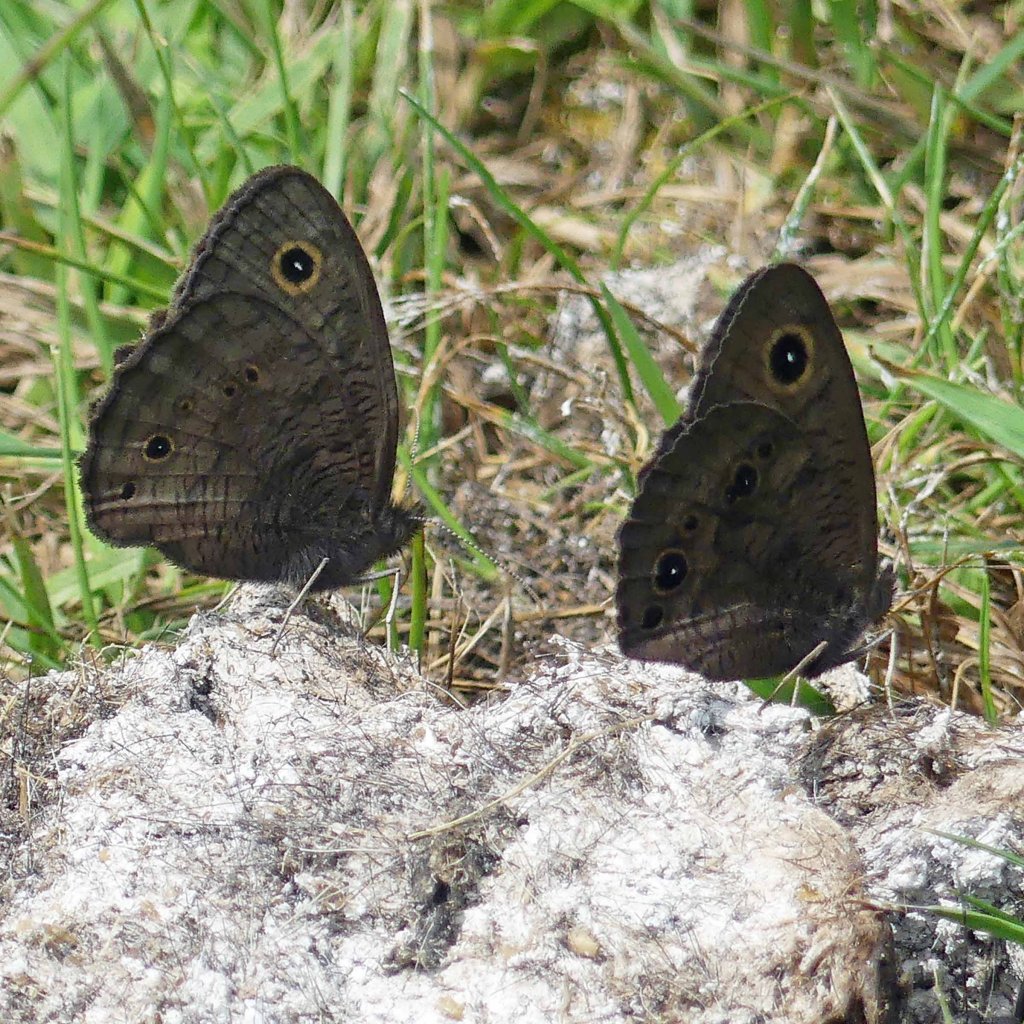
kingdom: Animalia
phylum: Arthropoda
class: Insecta
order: Lepidoptera
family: Nymphalidae
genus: Cercyonis
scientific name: Cercyonis pegala
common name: Common Wood-Nymph
